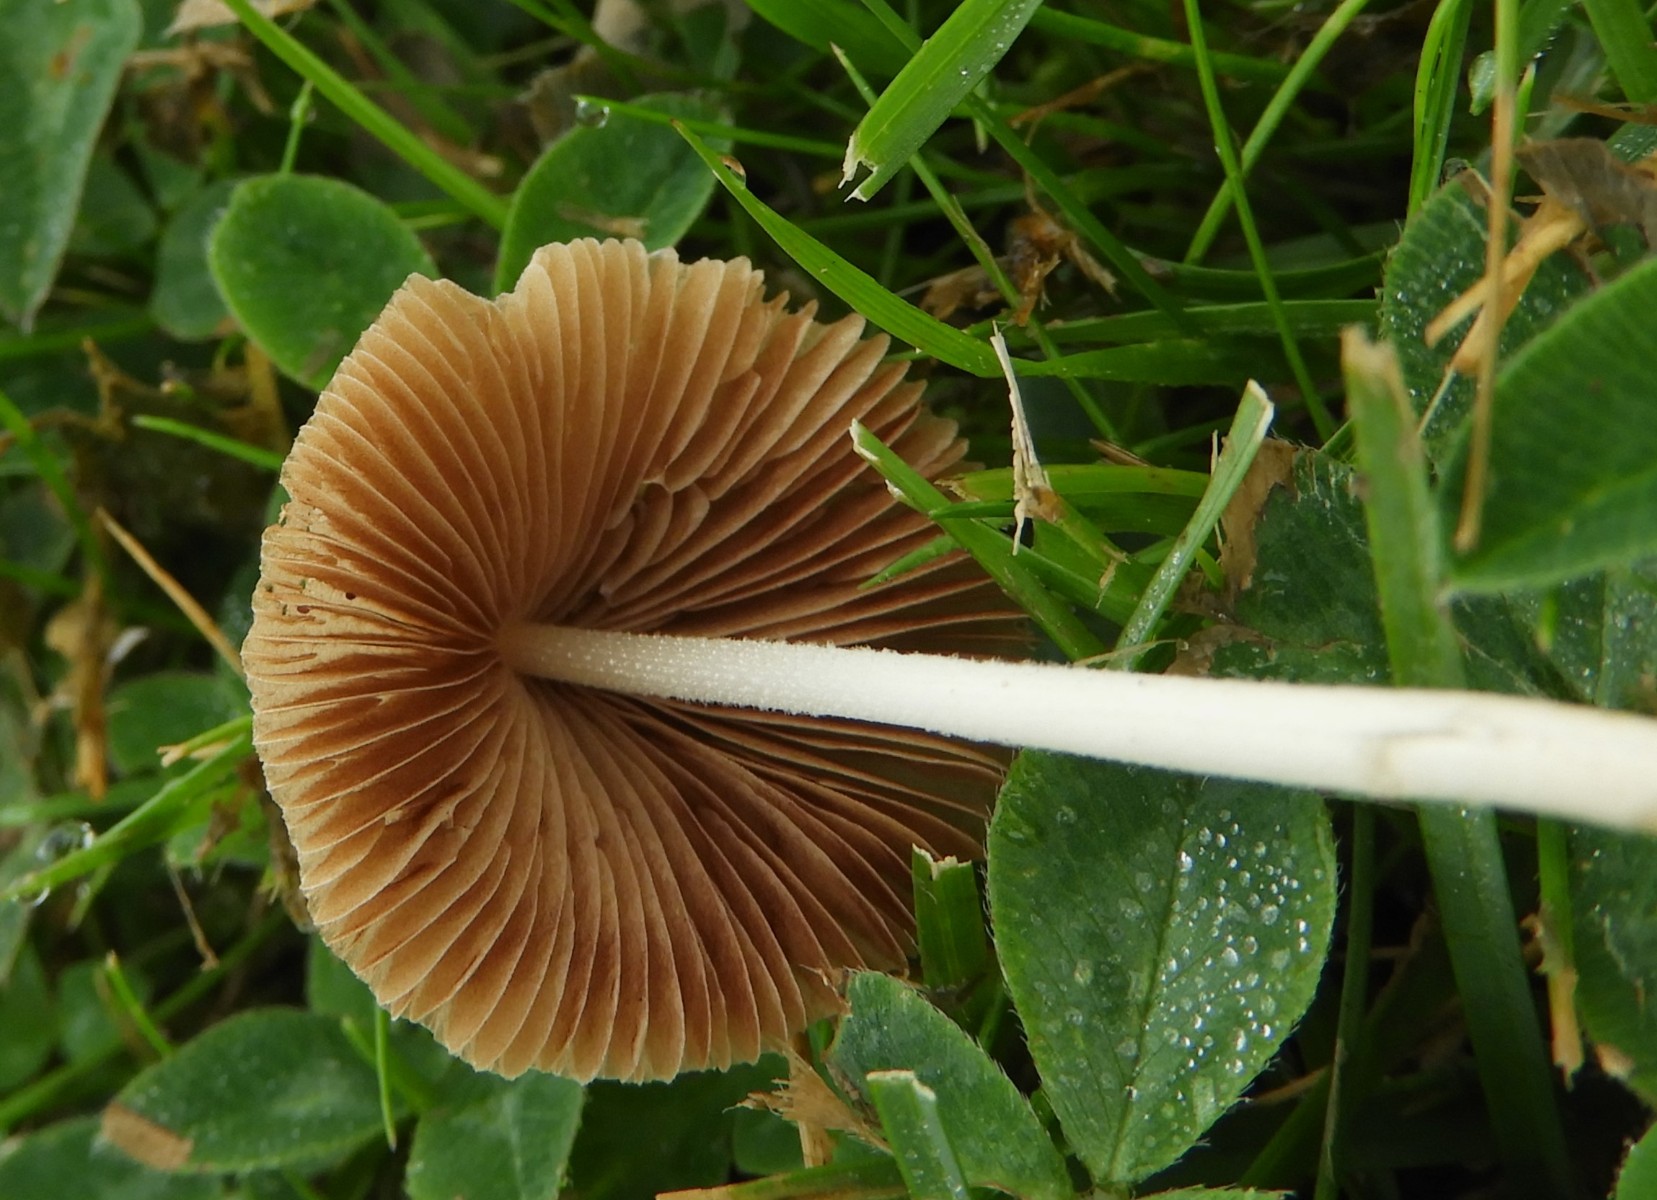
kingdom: Fungi
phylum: Basidiomycota
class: Agaricomycetes
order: Agaricales
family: Bolbitiaceae
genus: Conocybe
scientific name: Conocybe apala
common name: mælkehvid keglehat
